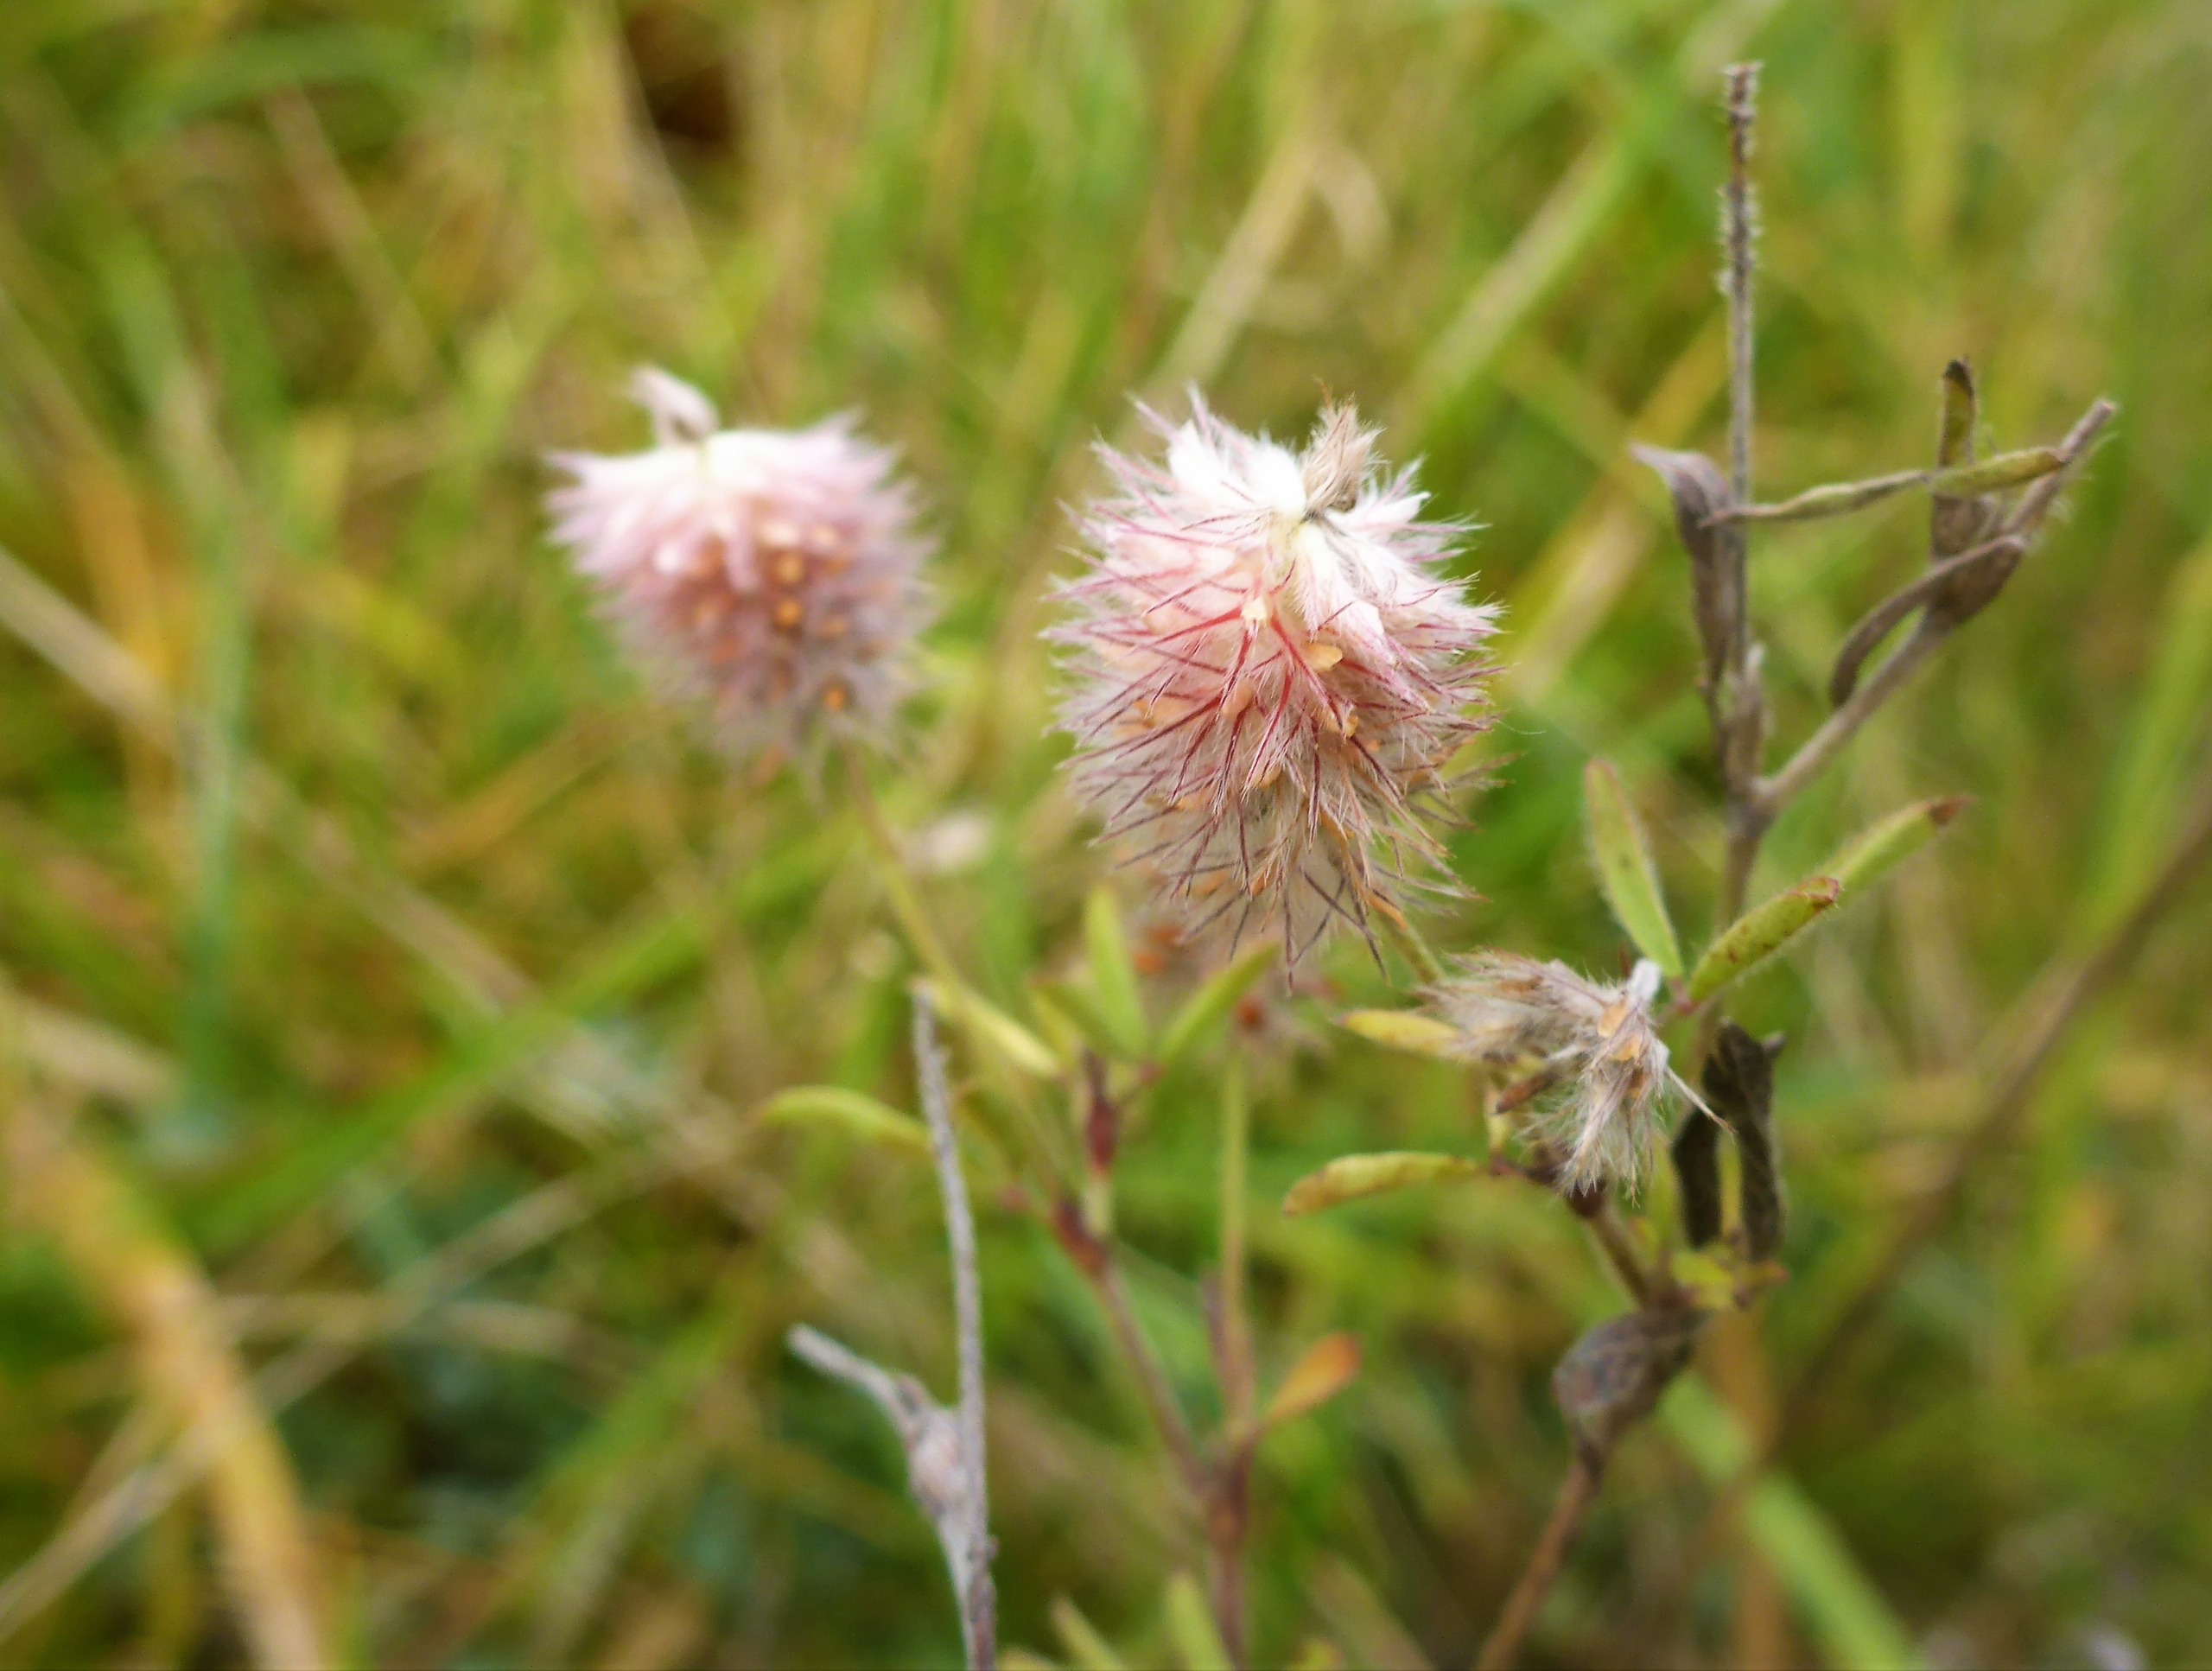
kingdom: Plantae
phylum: Tracheophyta
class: Magnoliopsida
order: Fabales
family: Fabaceae
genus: Trifolium
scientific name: Trifolium arvense
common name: Hare-kløver
